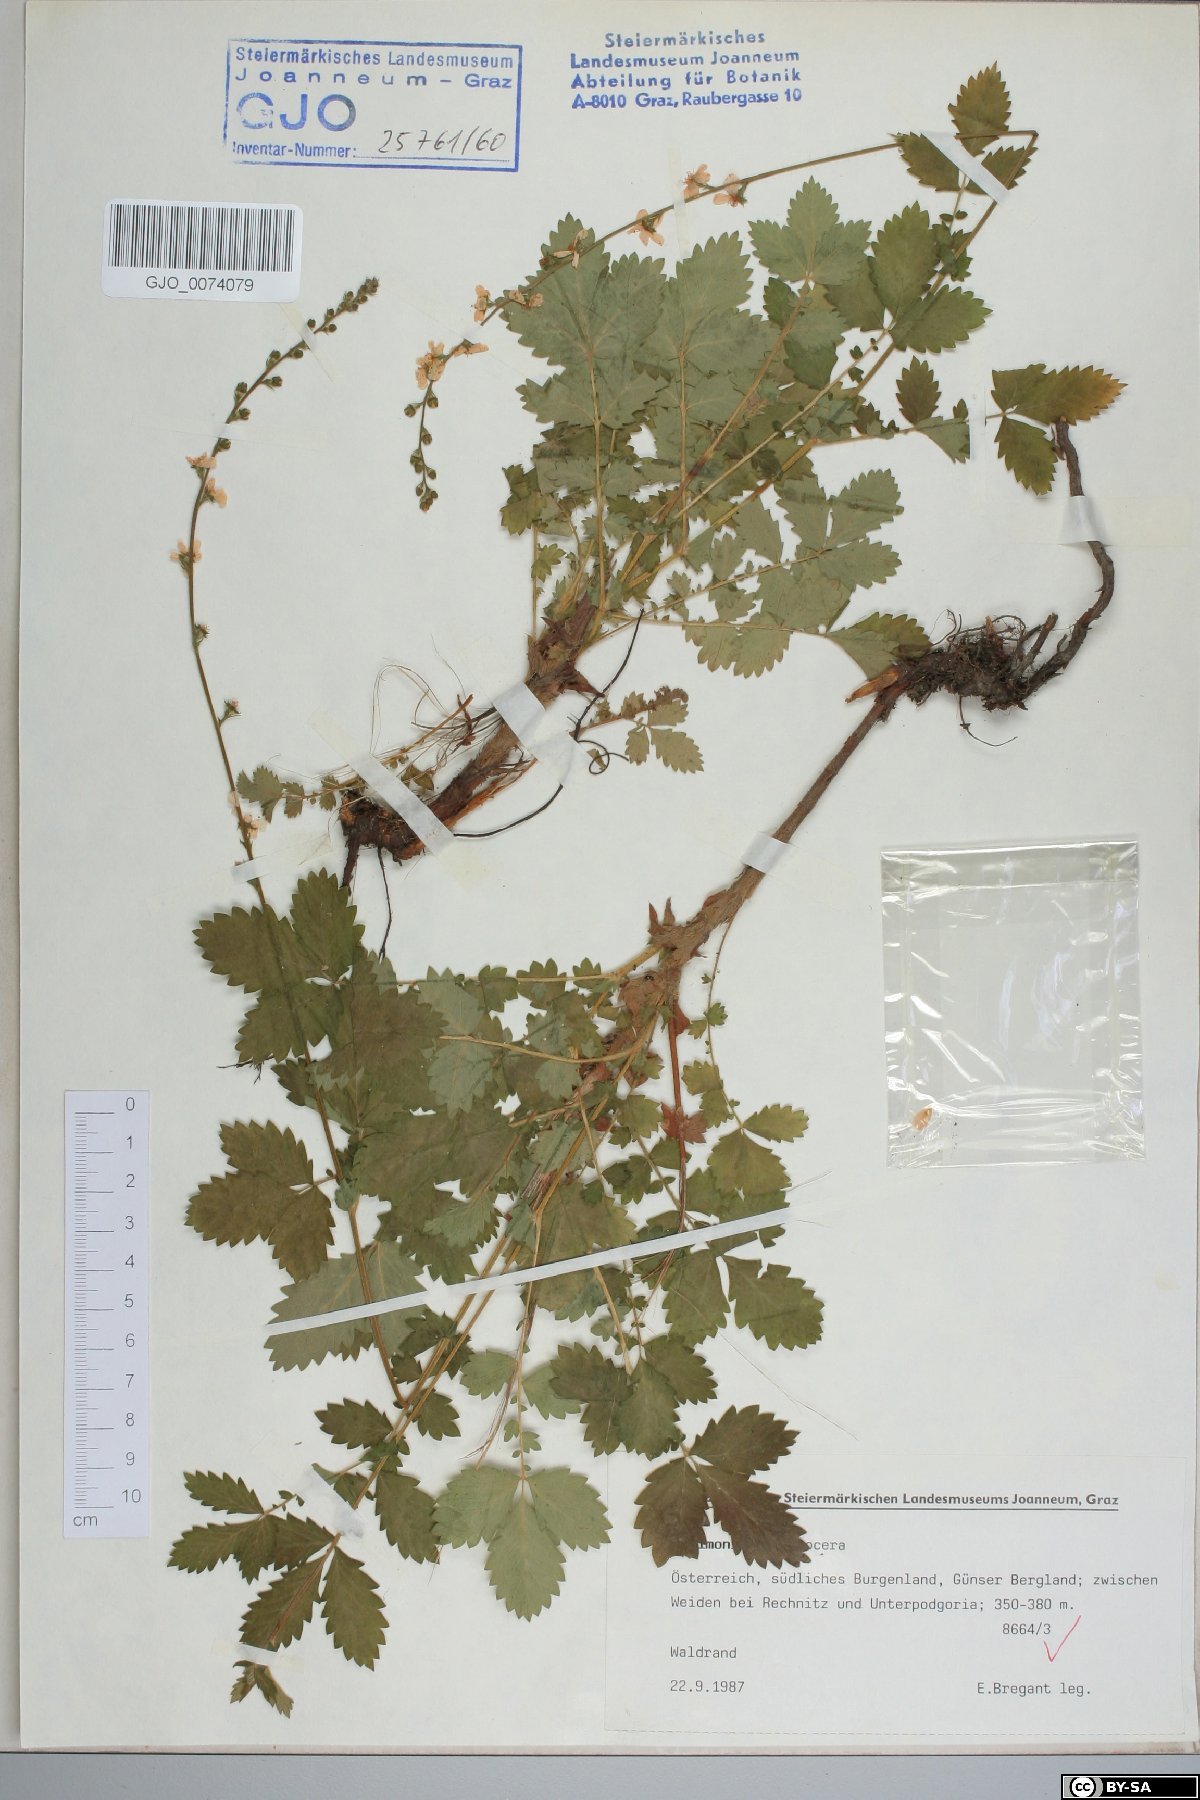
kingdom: Plantae
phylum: Tracheophyta
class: Magnoliopsida
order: Rosales
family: Rosaceae
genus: Agrimonia
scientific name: Agrimonia procera
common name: Fragrant agrimony
